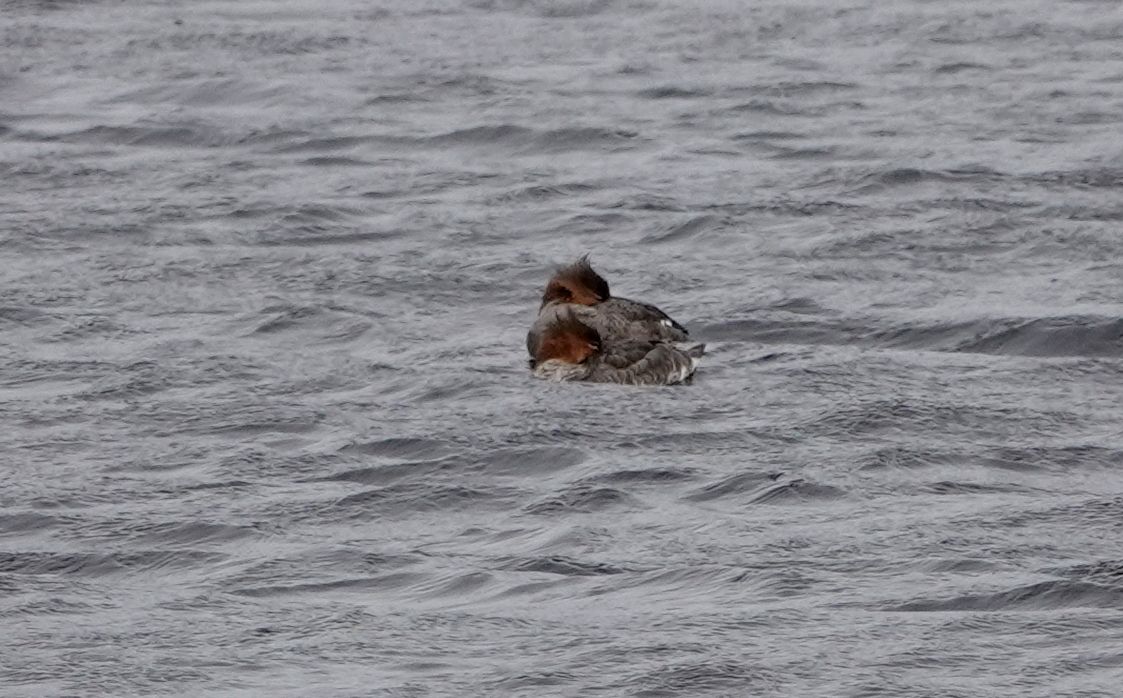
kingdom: Animalia
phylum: Chordata
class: Aves
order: Anseriformes
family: Anatidae
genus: Mergus
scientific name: Mergus serrator
